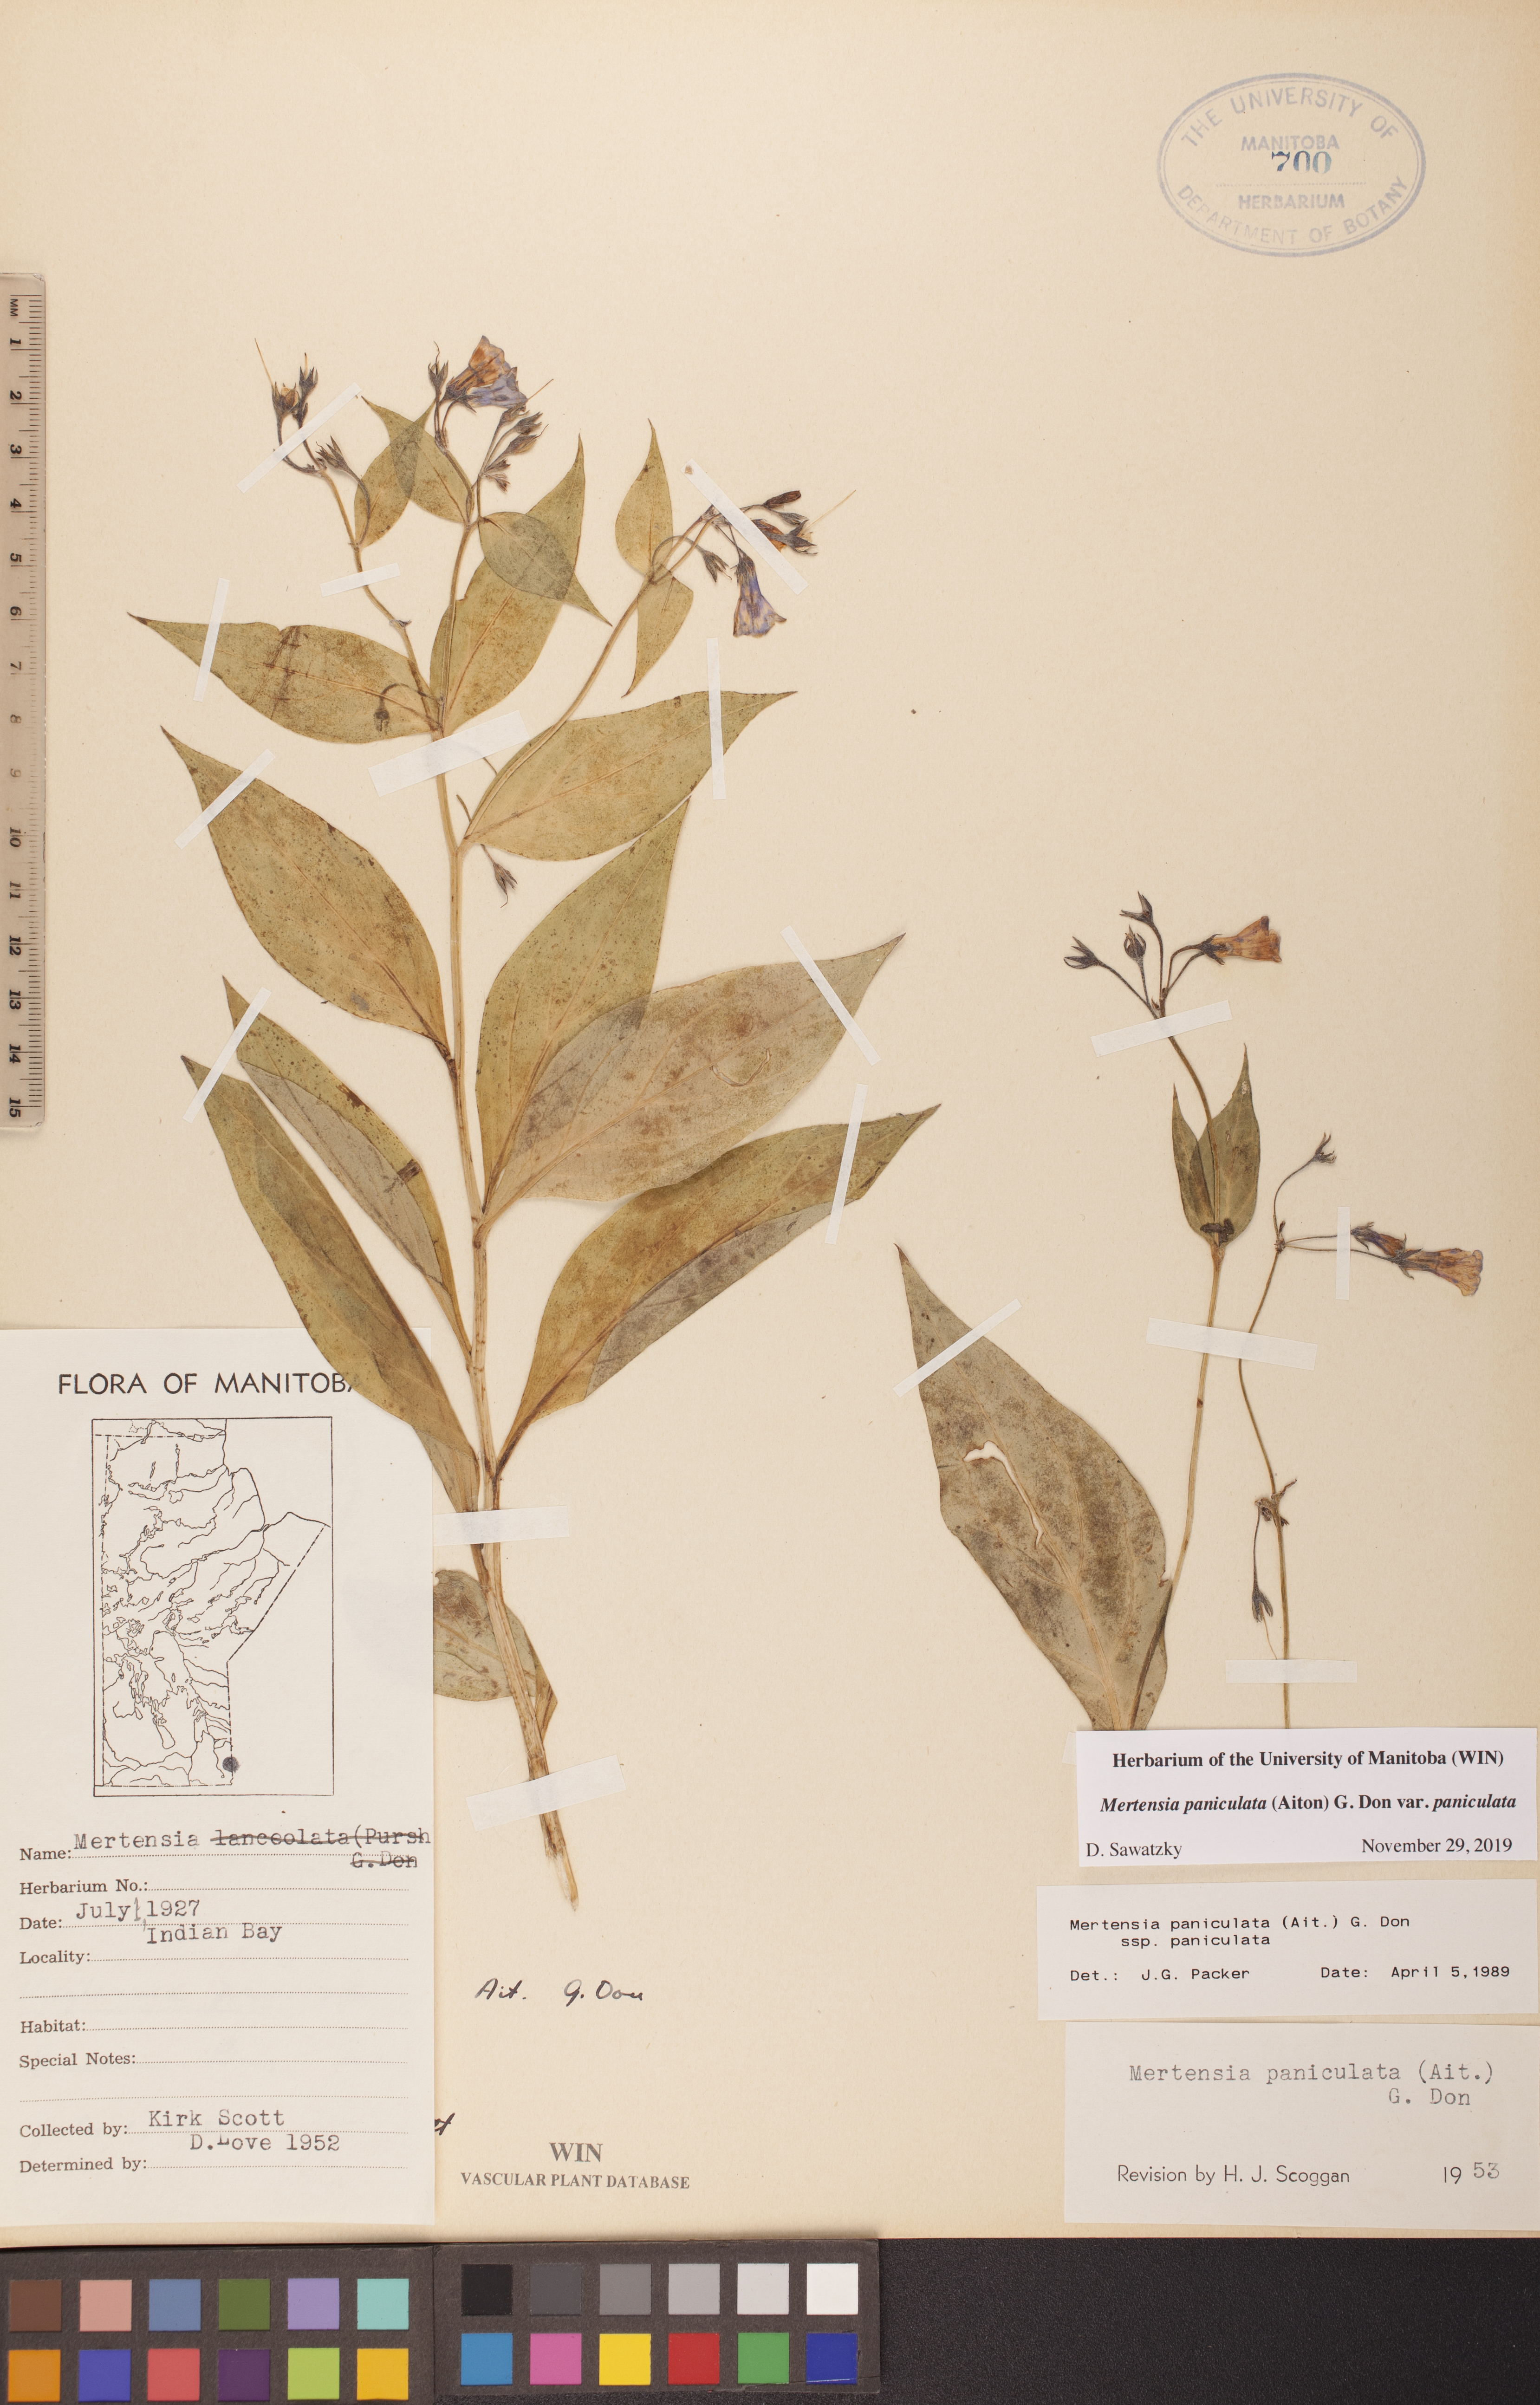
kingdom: Plantae
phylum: Tracheophyta
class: Magnoliopsida
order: Boraginales
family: Boraginaceae
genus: Mertensia
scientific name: Mertensia paniculata
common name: Panicled bluebells
